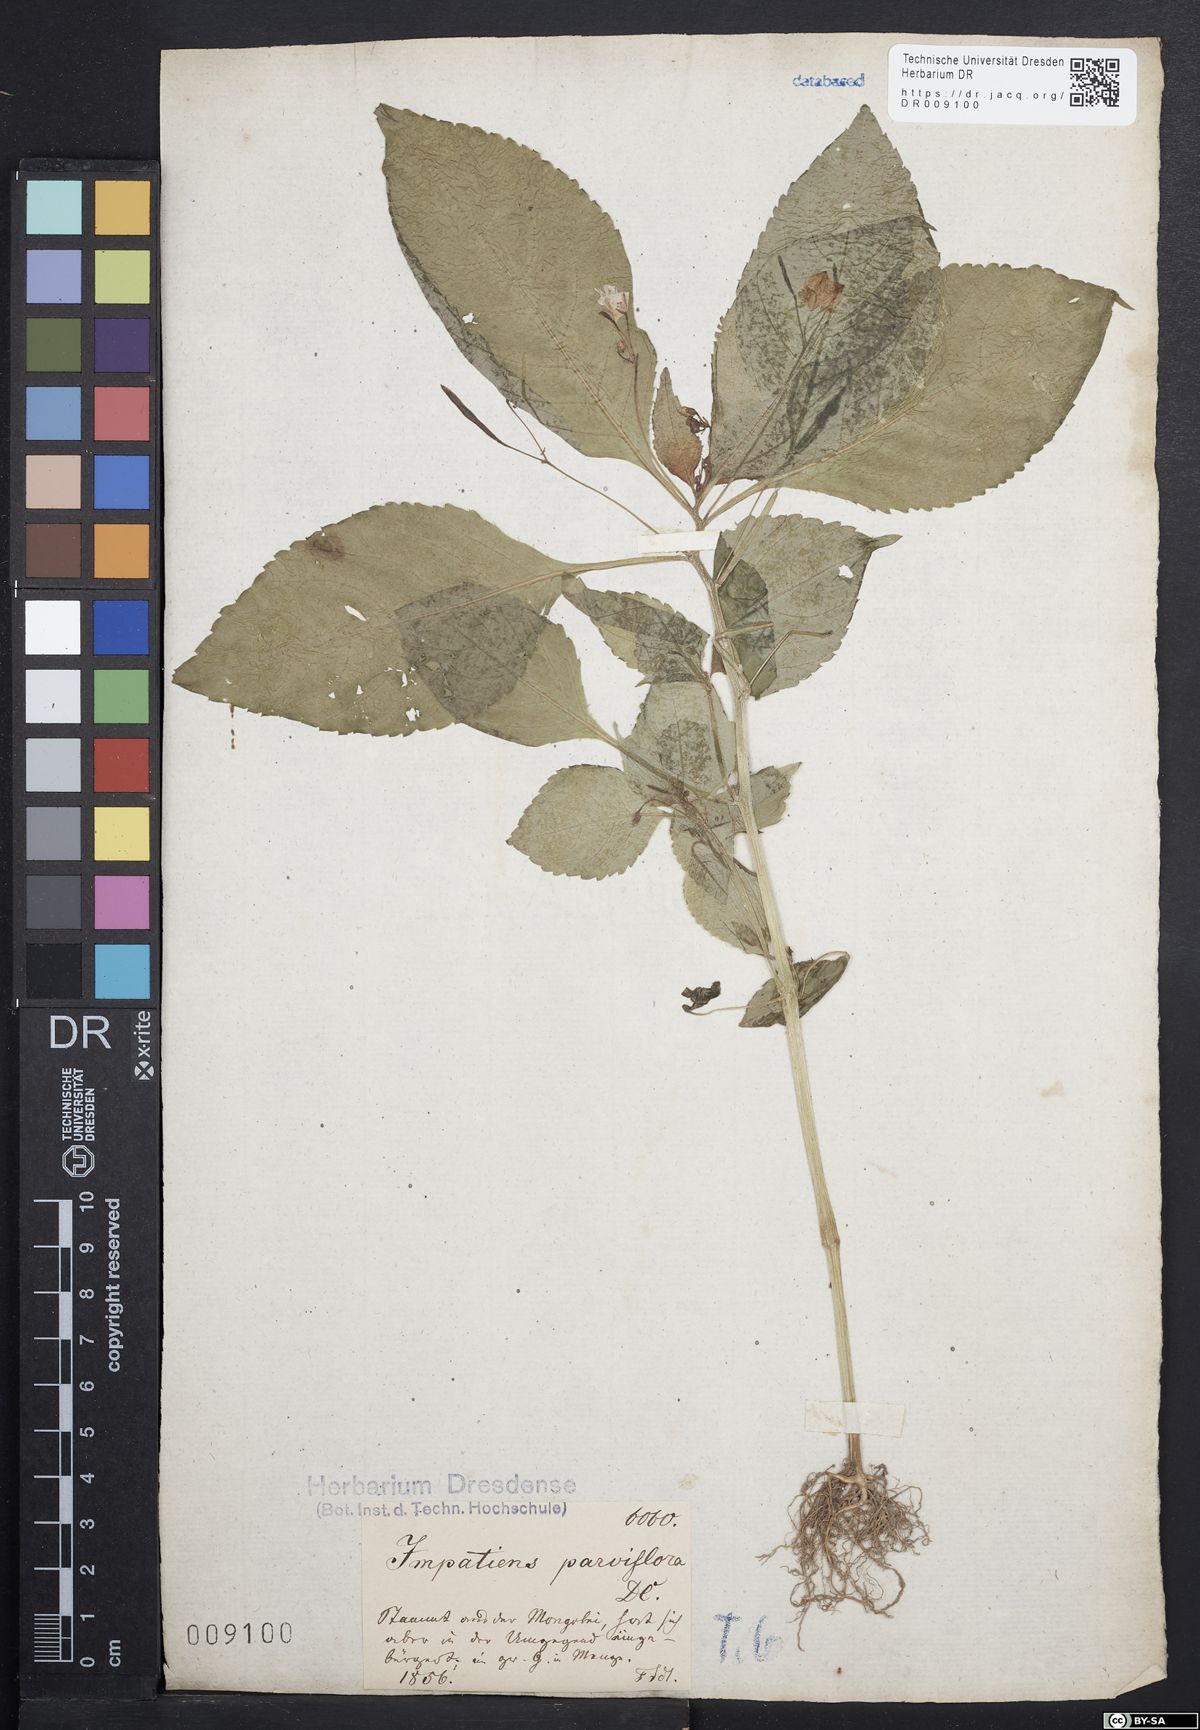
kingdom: Plantae
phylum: Tracheophyta
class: Magnoliopsida
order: Ericales
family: Balsaminaceae
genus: Impatiens
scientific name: Impatiens parviflora
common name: Small balsam
